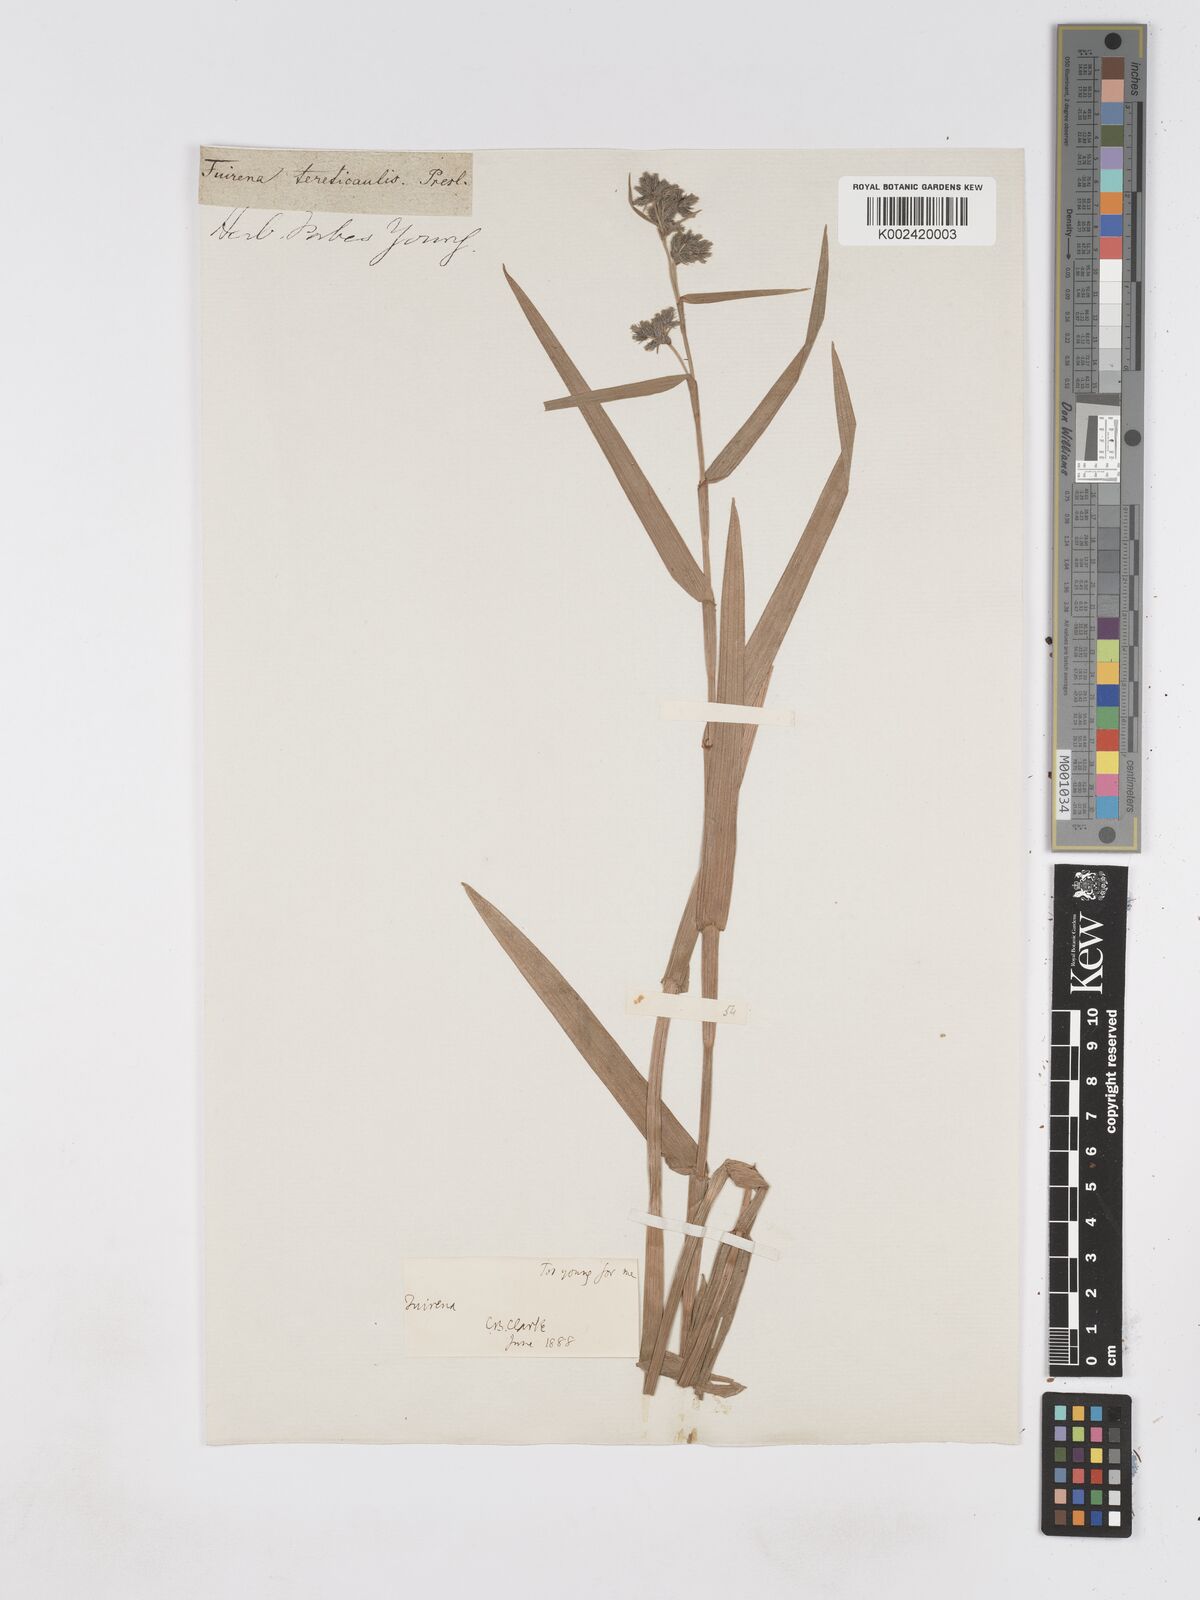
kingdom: Plantae
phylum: Tracheophyta
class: Liliopsida
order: Poales
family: Cyperaceae
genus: Fuirena
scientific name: Fuirena umbellata
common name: Yefen
